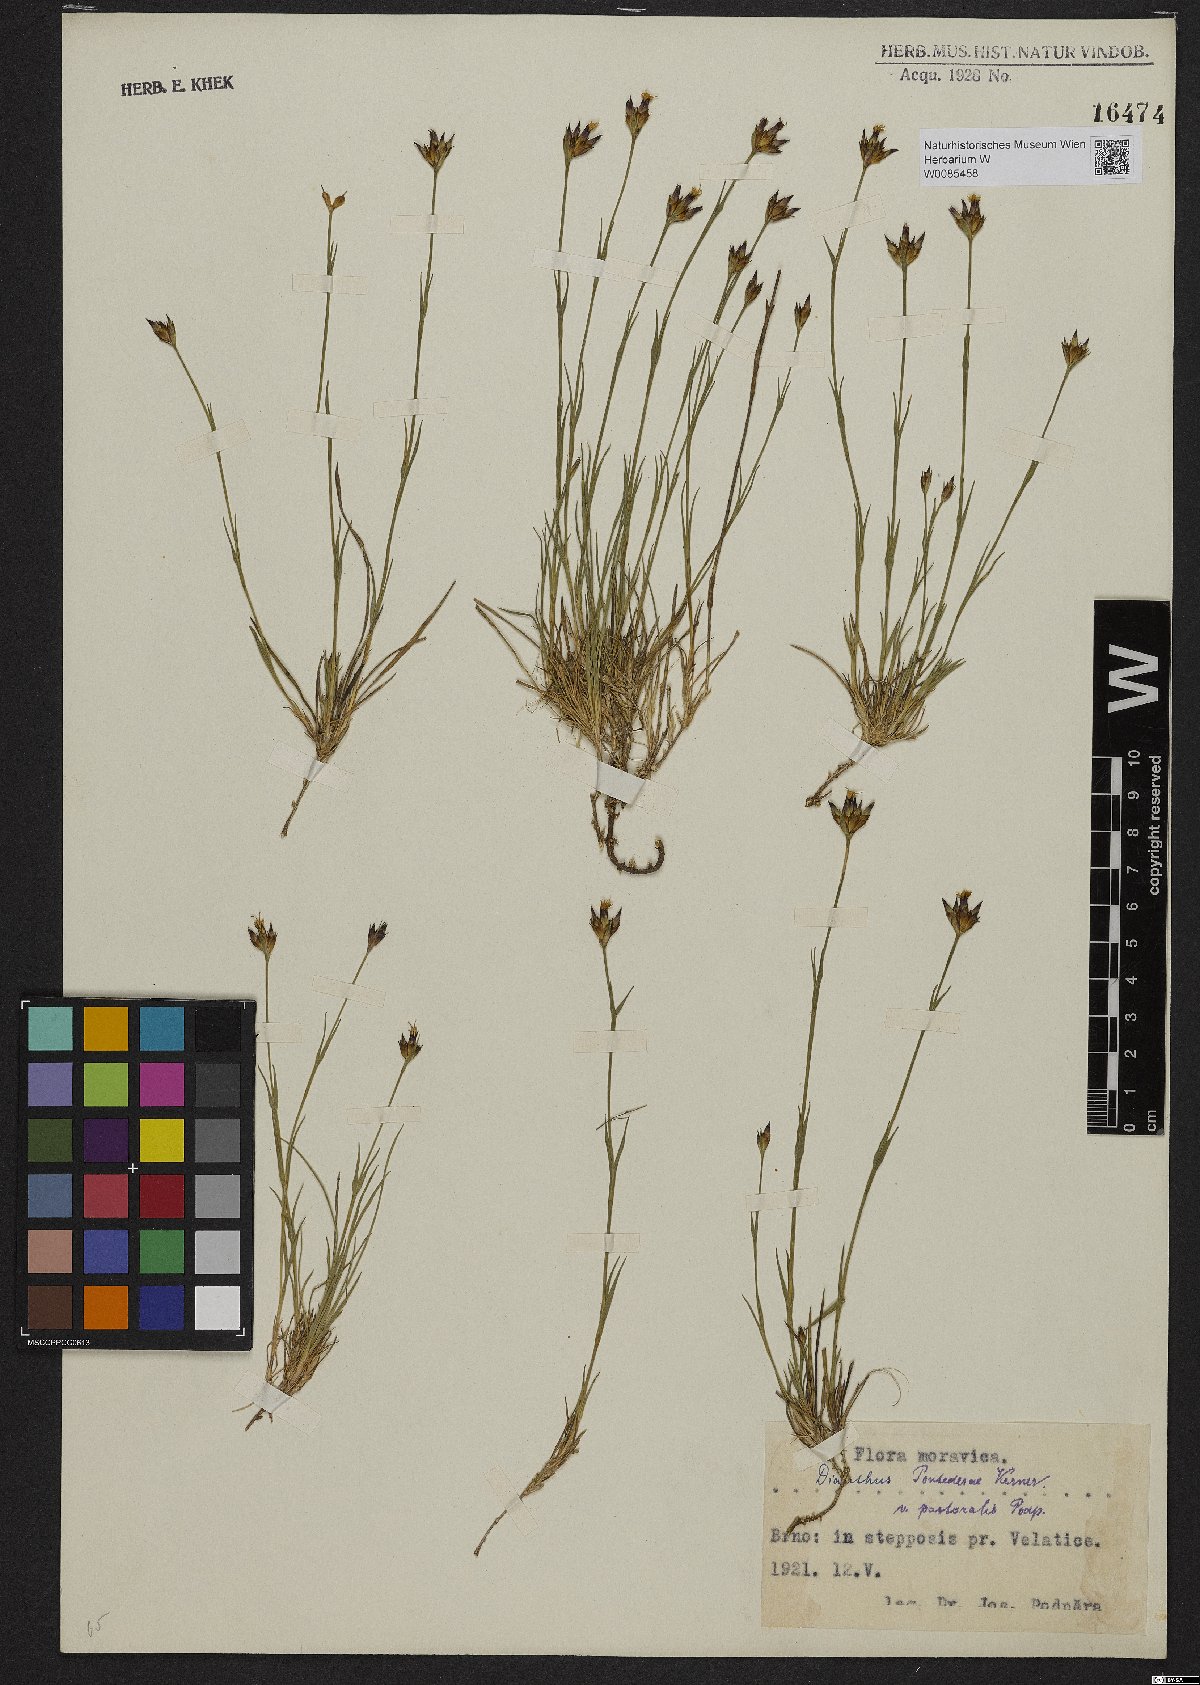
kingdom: Plantae
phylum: Tracheophyta
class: Magnoliopsida
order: Caryophyllales
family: Caryophyllaceae
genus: Dianthus
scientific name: Dianthus pontederae
